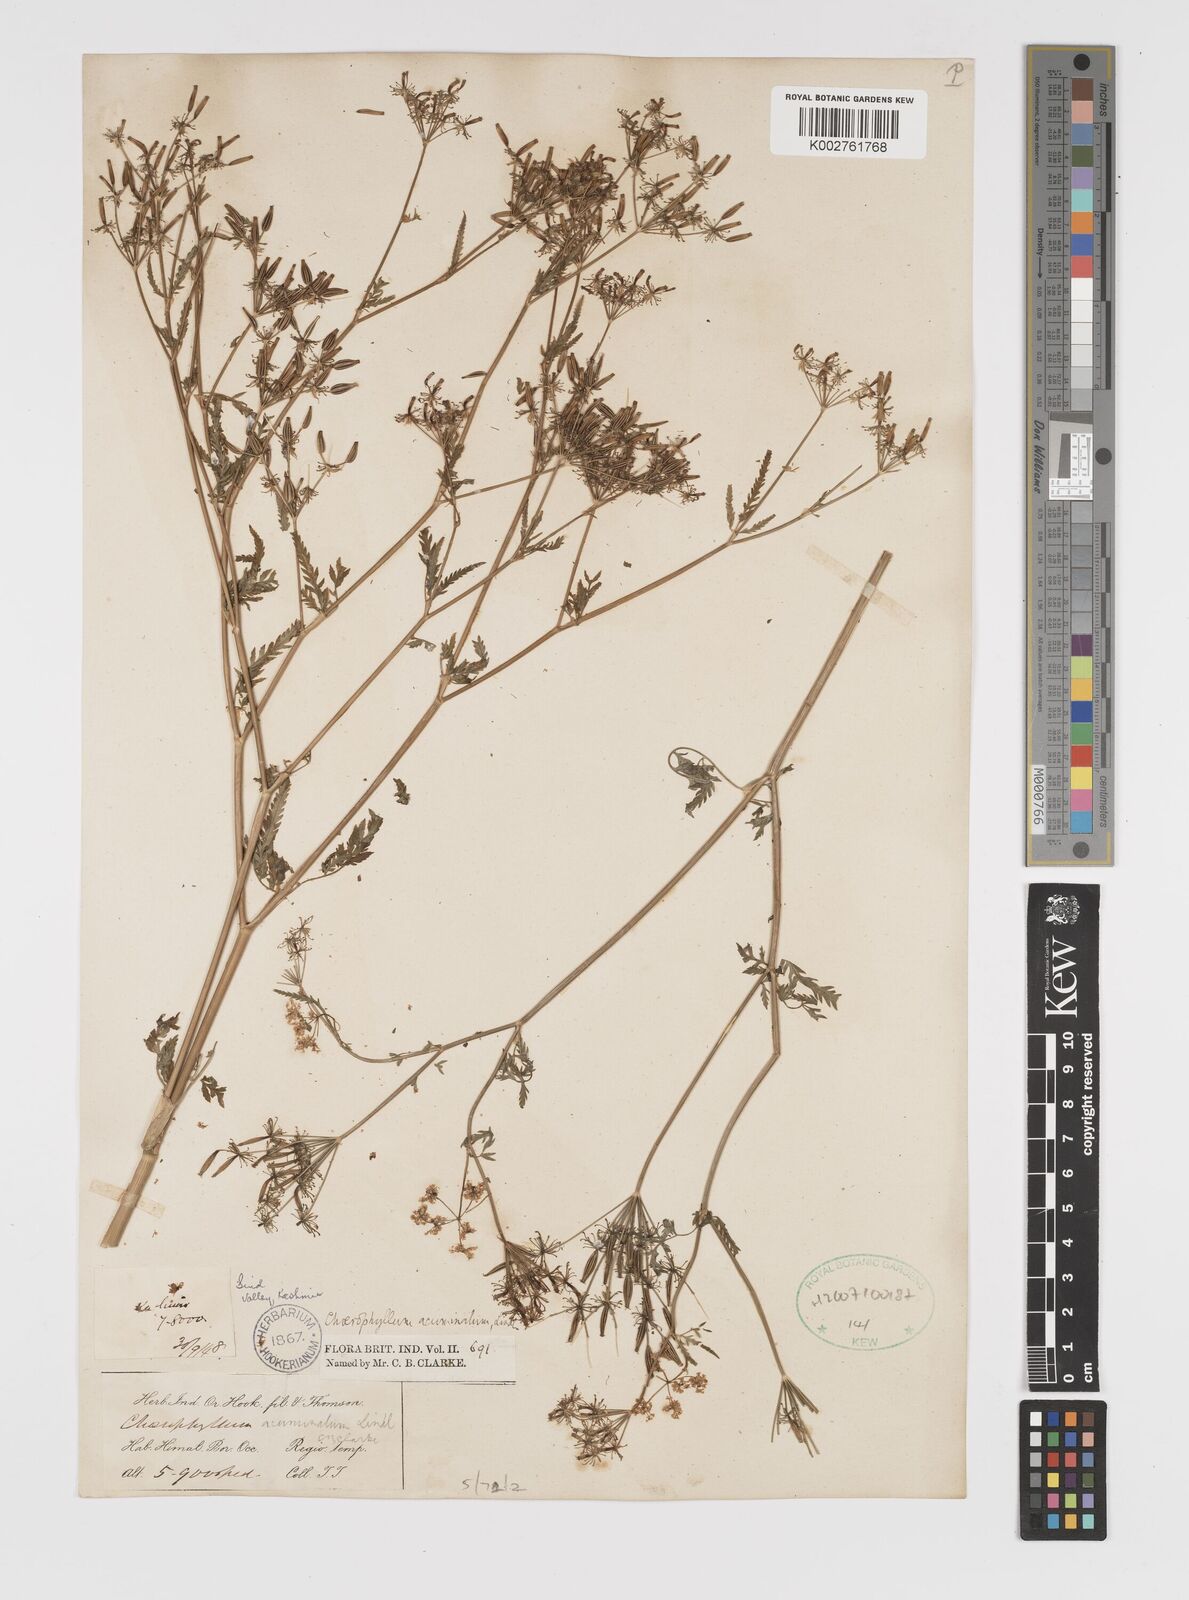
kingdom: Plantae
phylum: Tracheophyta
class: Magnoliopsida
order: Apiales
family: Apiaceae
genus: Chaerophyllum
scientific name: Chaerophyllum reflexum
